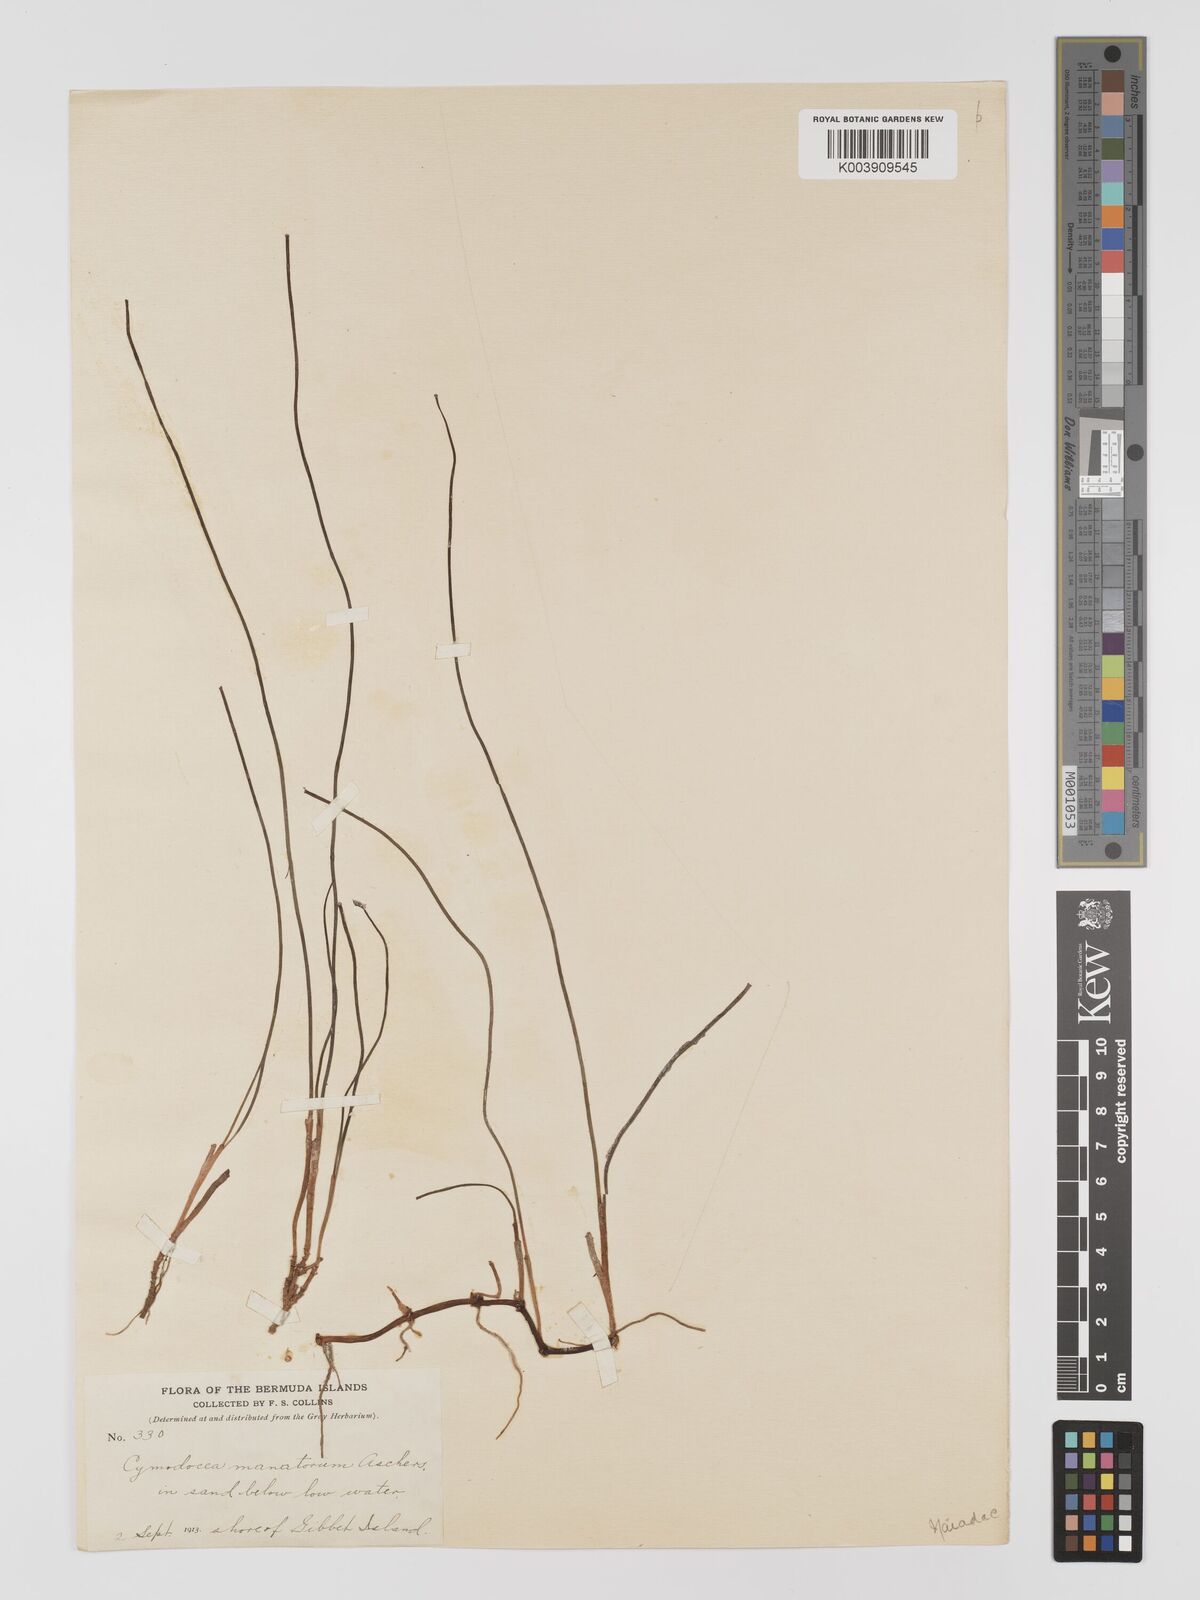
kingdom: Plantae
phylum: Tracheophyta
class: Liliopsida
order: Alismatales
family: Cymodoceaceae
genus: Syringodium
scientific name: Syringodium
